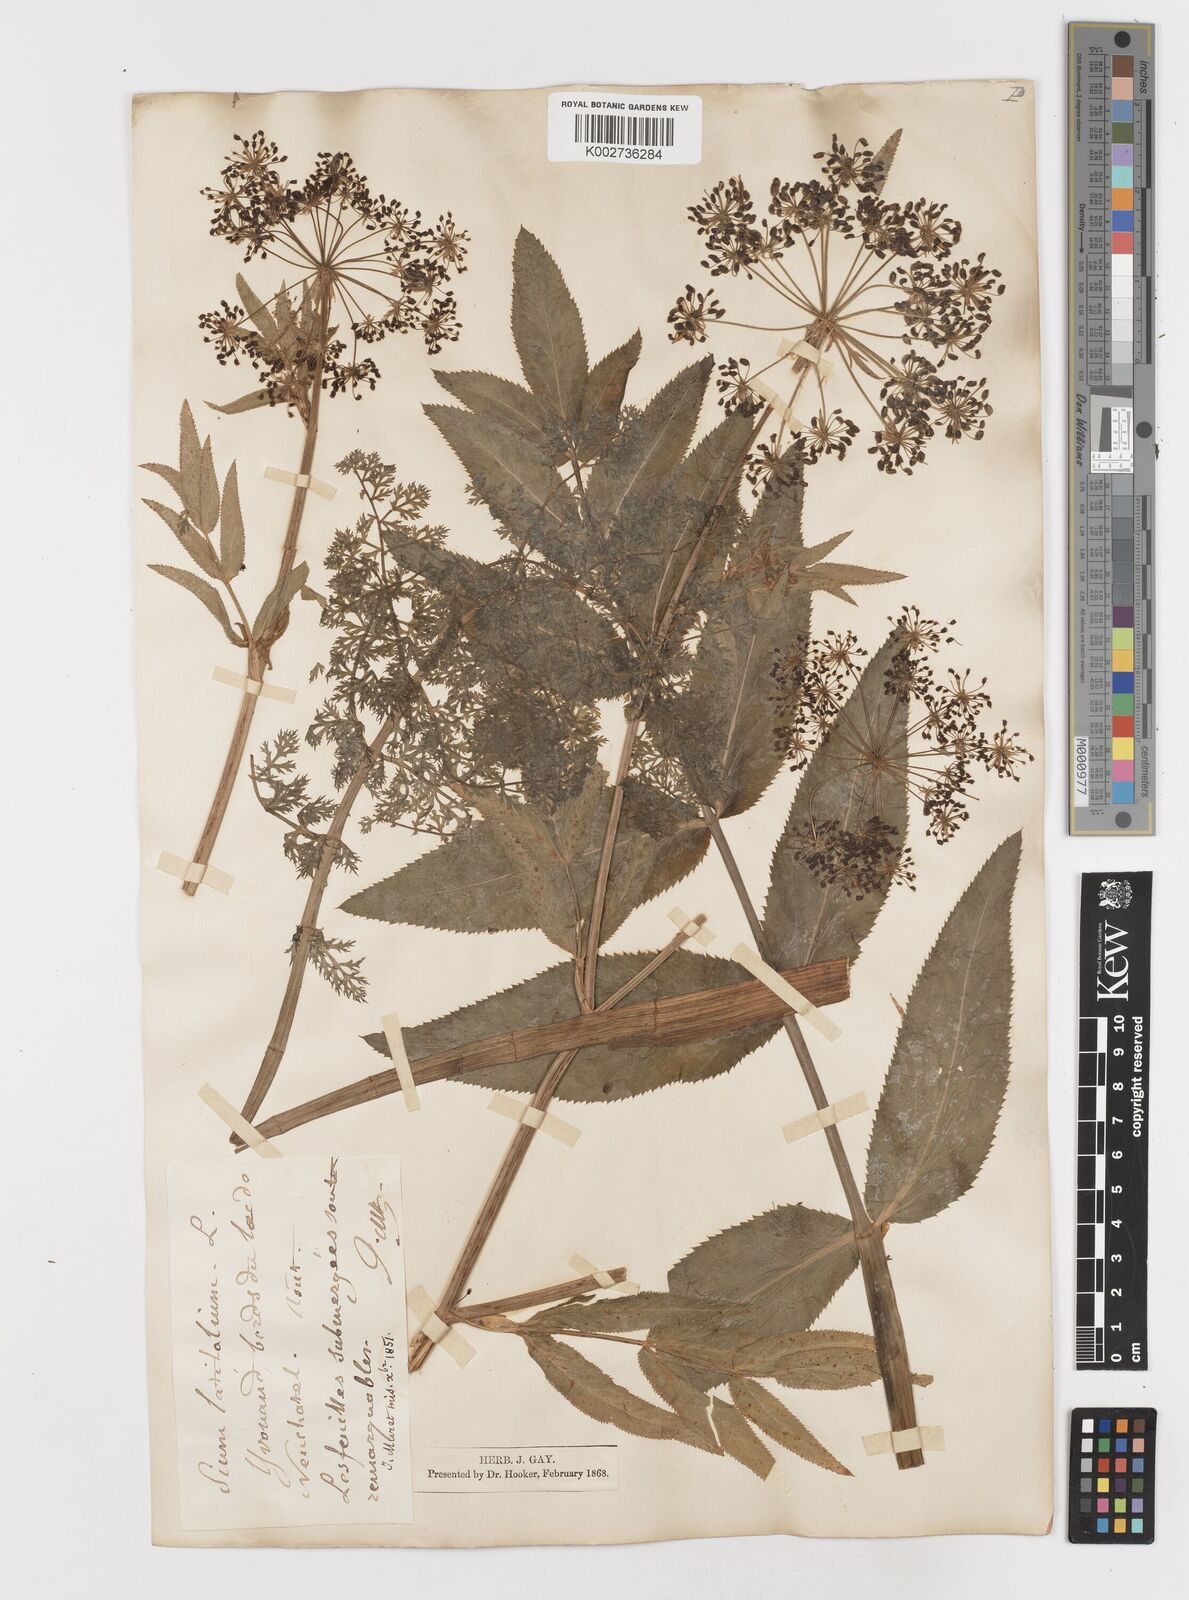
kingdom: Plantae
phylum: Tracheophyta
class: Magnoliopsida
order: Apiales
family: Apiaceae
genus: Sium
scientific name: Sium latifolium
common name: Greater water-parsnip
